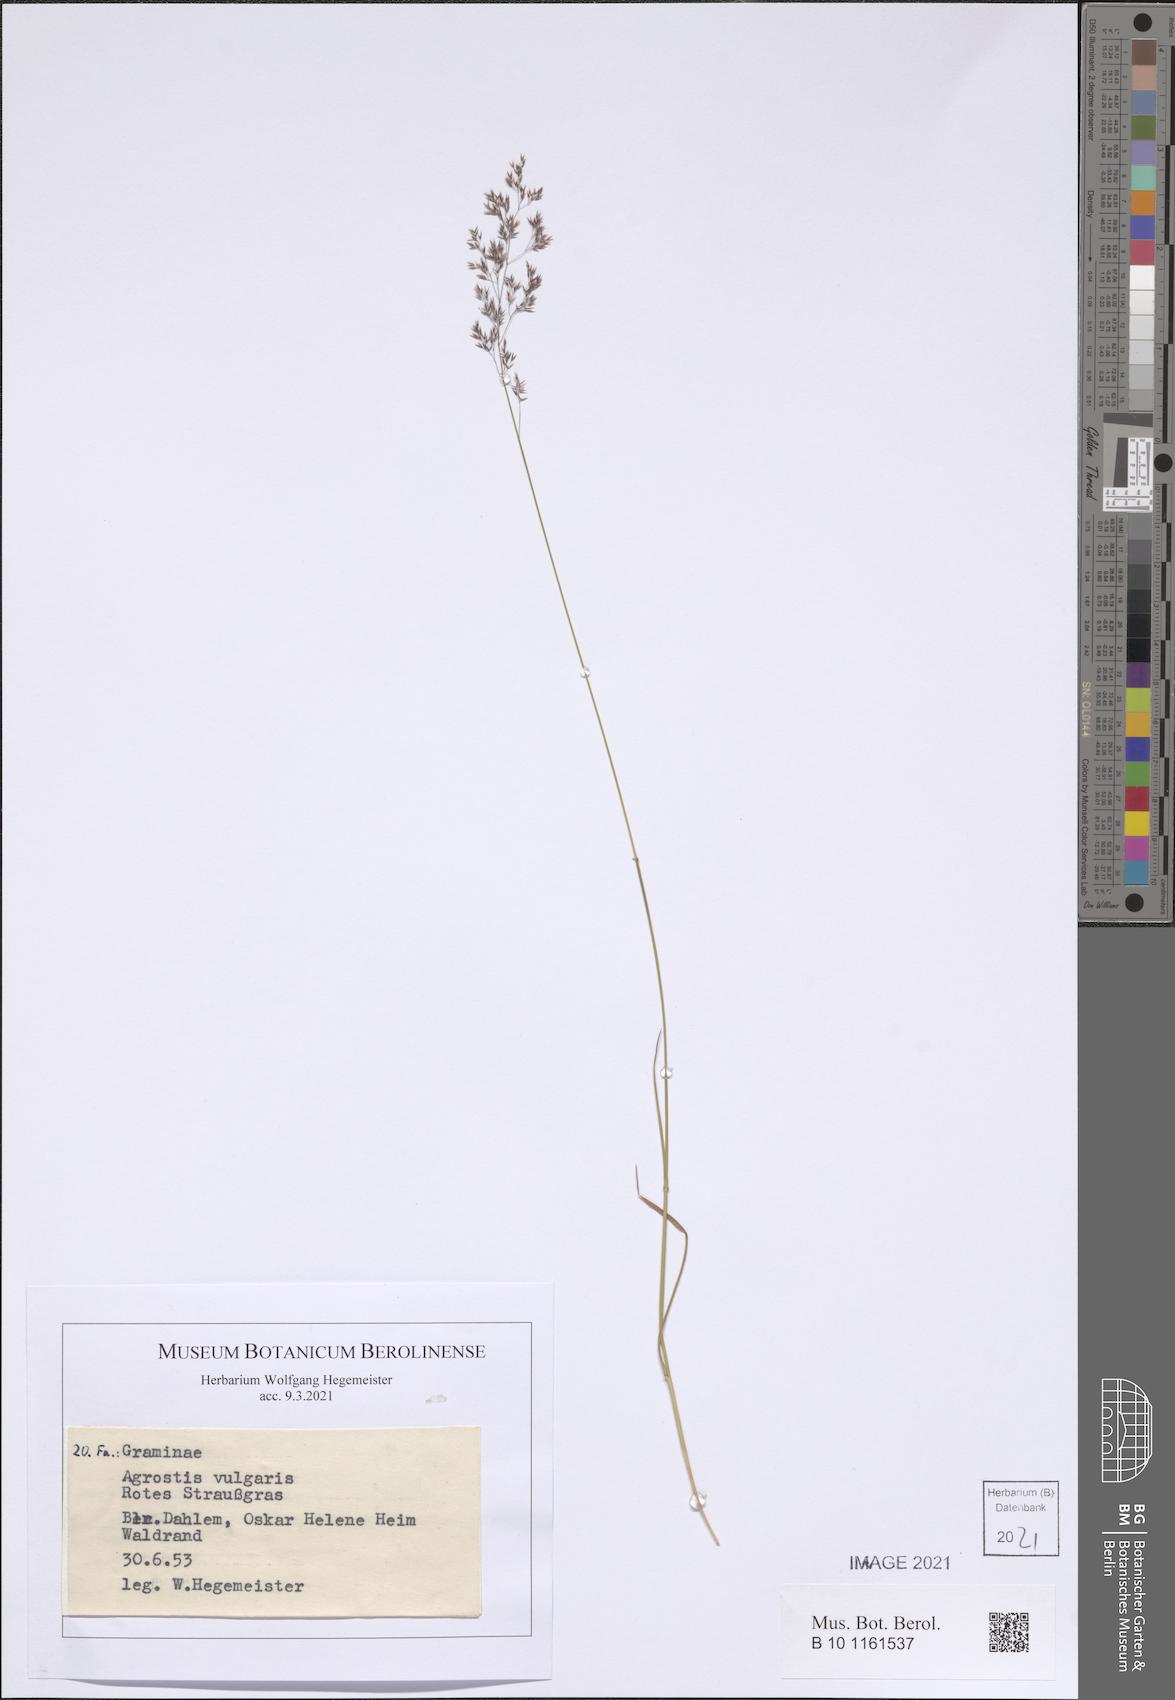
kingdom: Plantae
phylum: Tracheophyta
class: Liliopsida
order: Poales
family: Poaceae
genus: Agrostis
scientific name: Agrostis capillaris
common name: Colonial bentgrass
